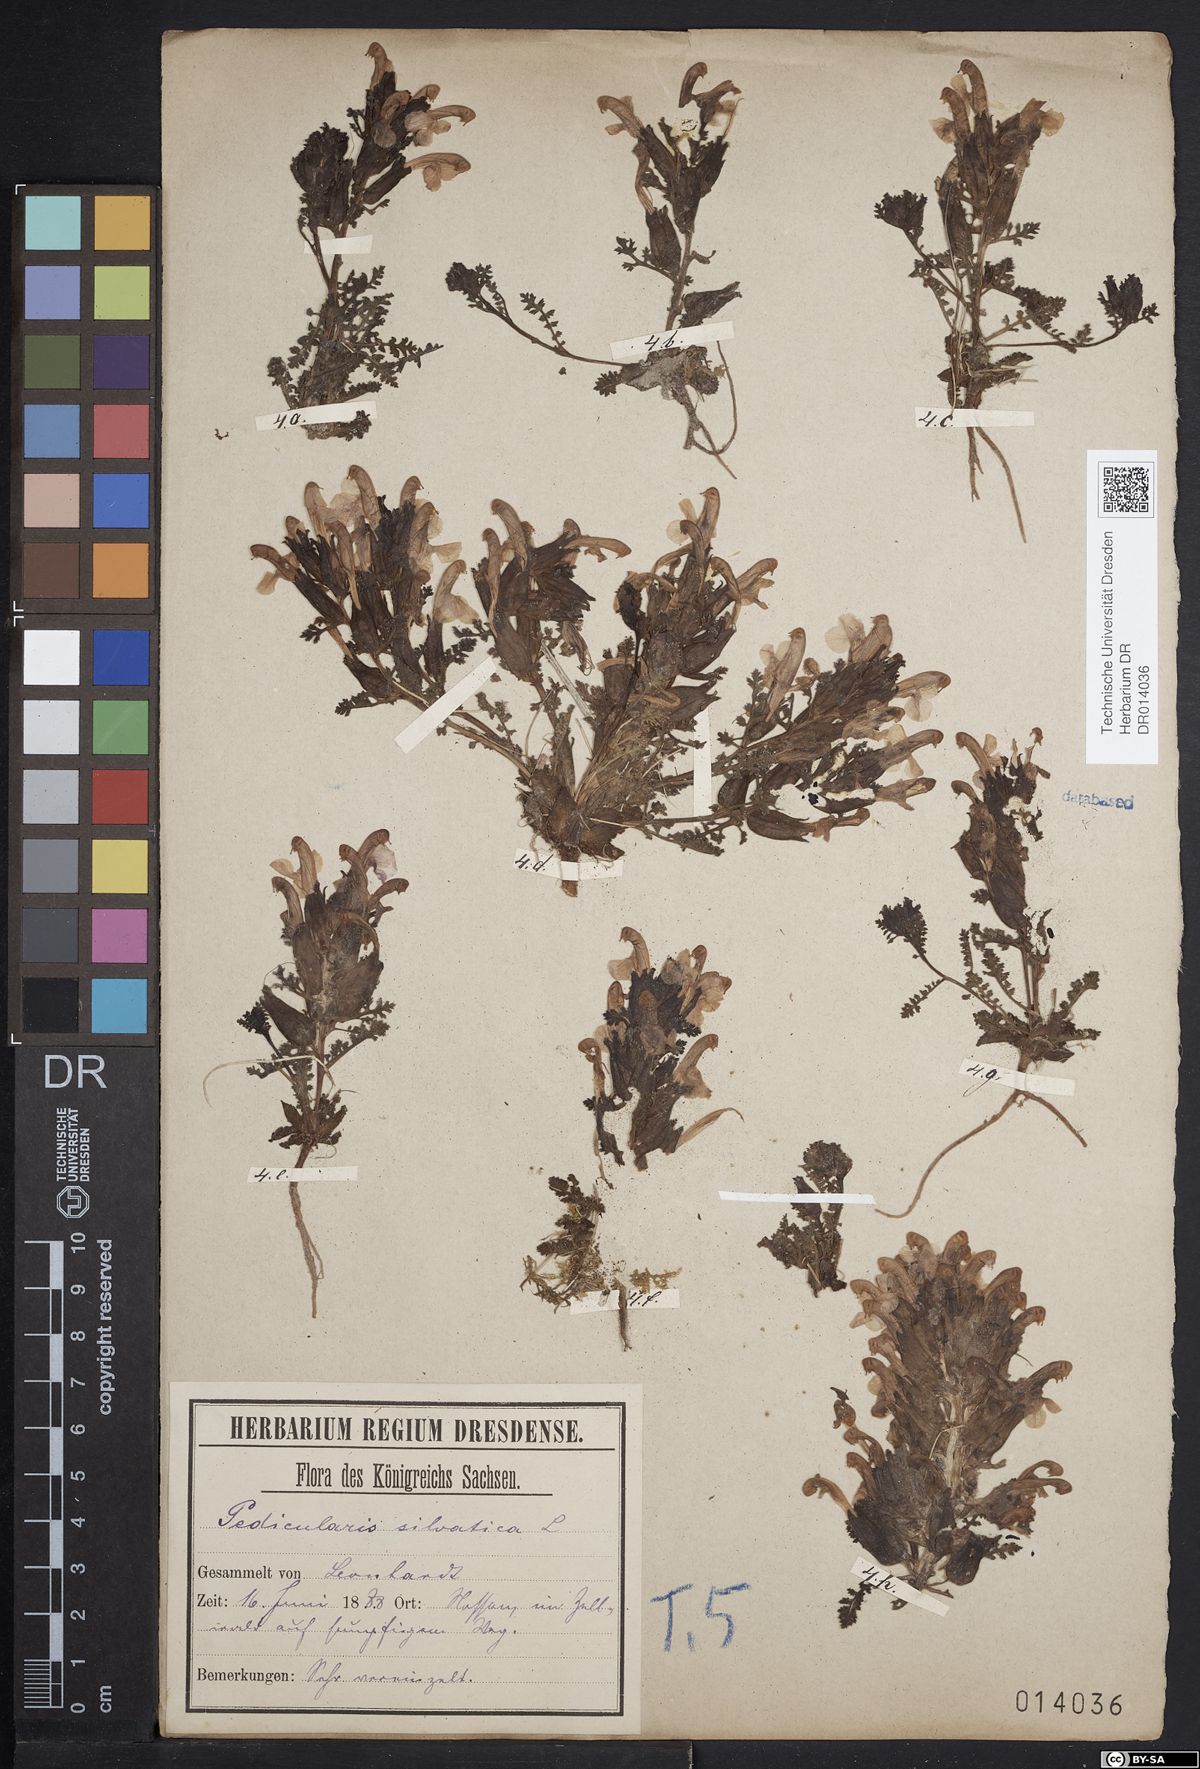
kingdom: Plantae
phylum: Tracheophyta
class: Magnoliopsida
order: Lamiales
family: Orobanchaceae
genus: Pedicularis
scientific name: Pedicularis sylvatica
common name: Lousewort
